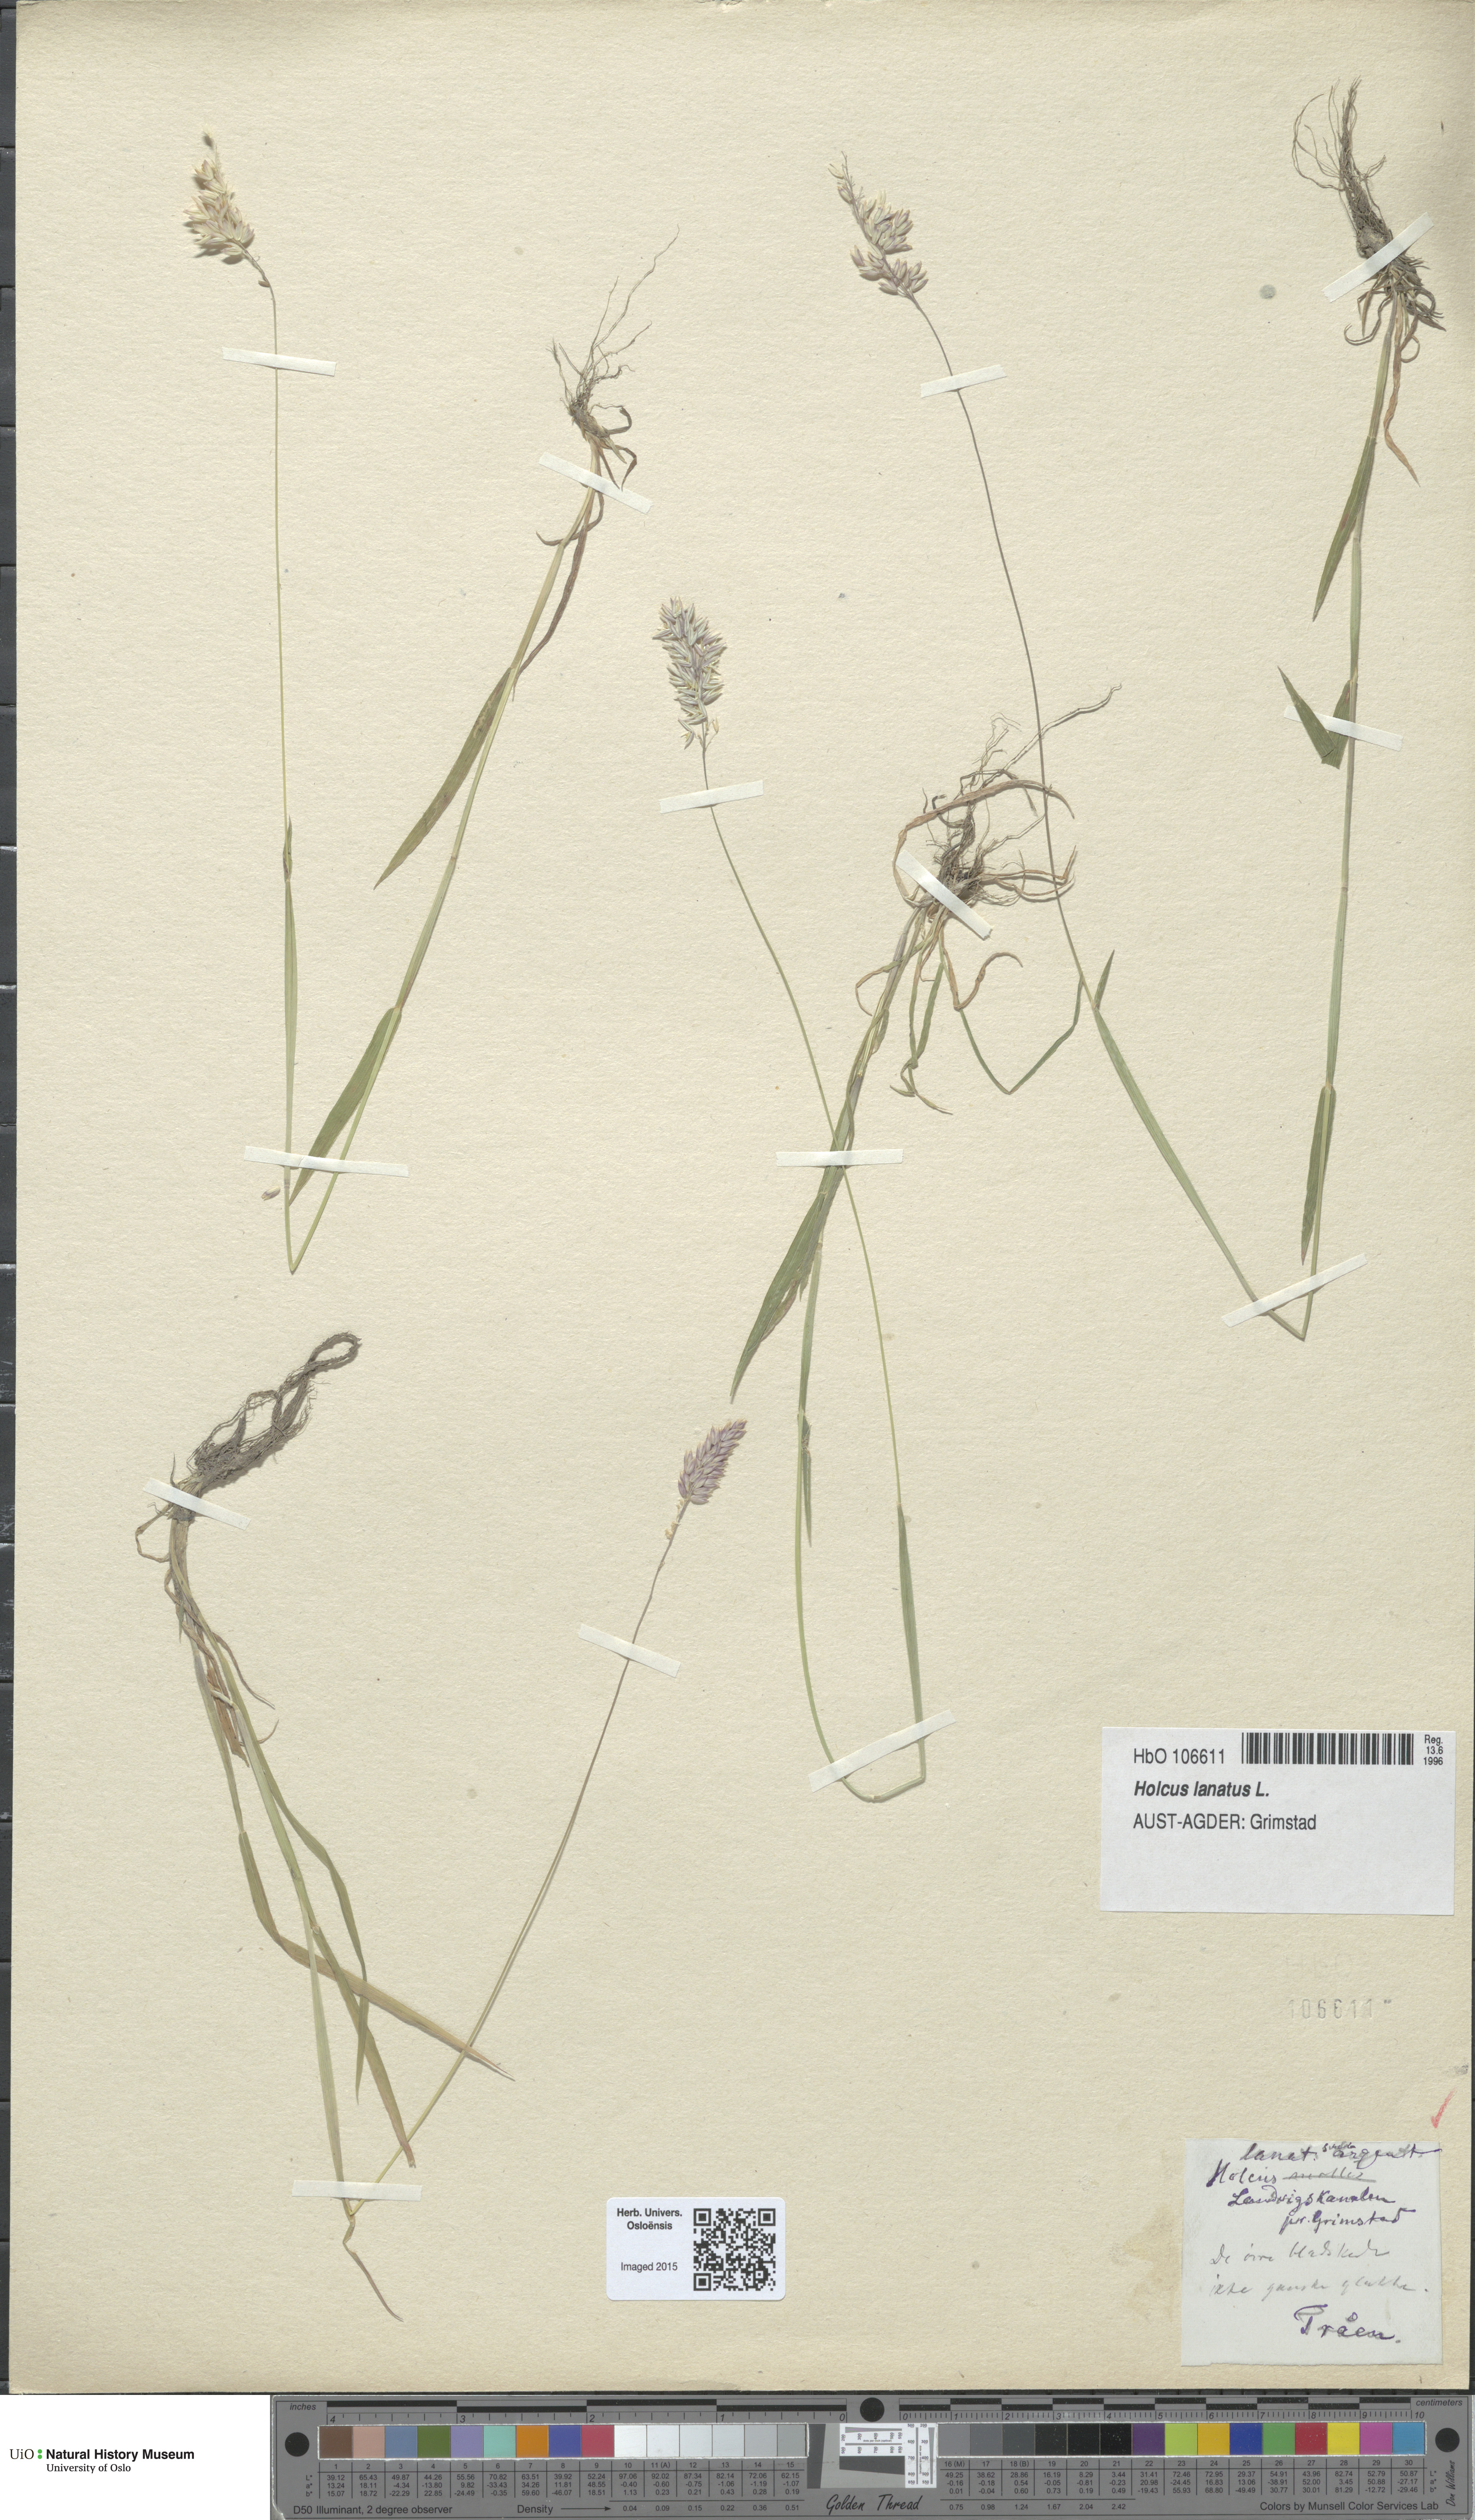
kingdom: Plantae
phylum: Tracheophyta
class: Liliopsida
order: Poales
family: Poaceae
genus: Holcus
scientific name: Holcus lanatus
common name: Yorkshire-fog
